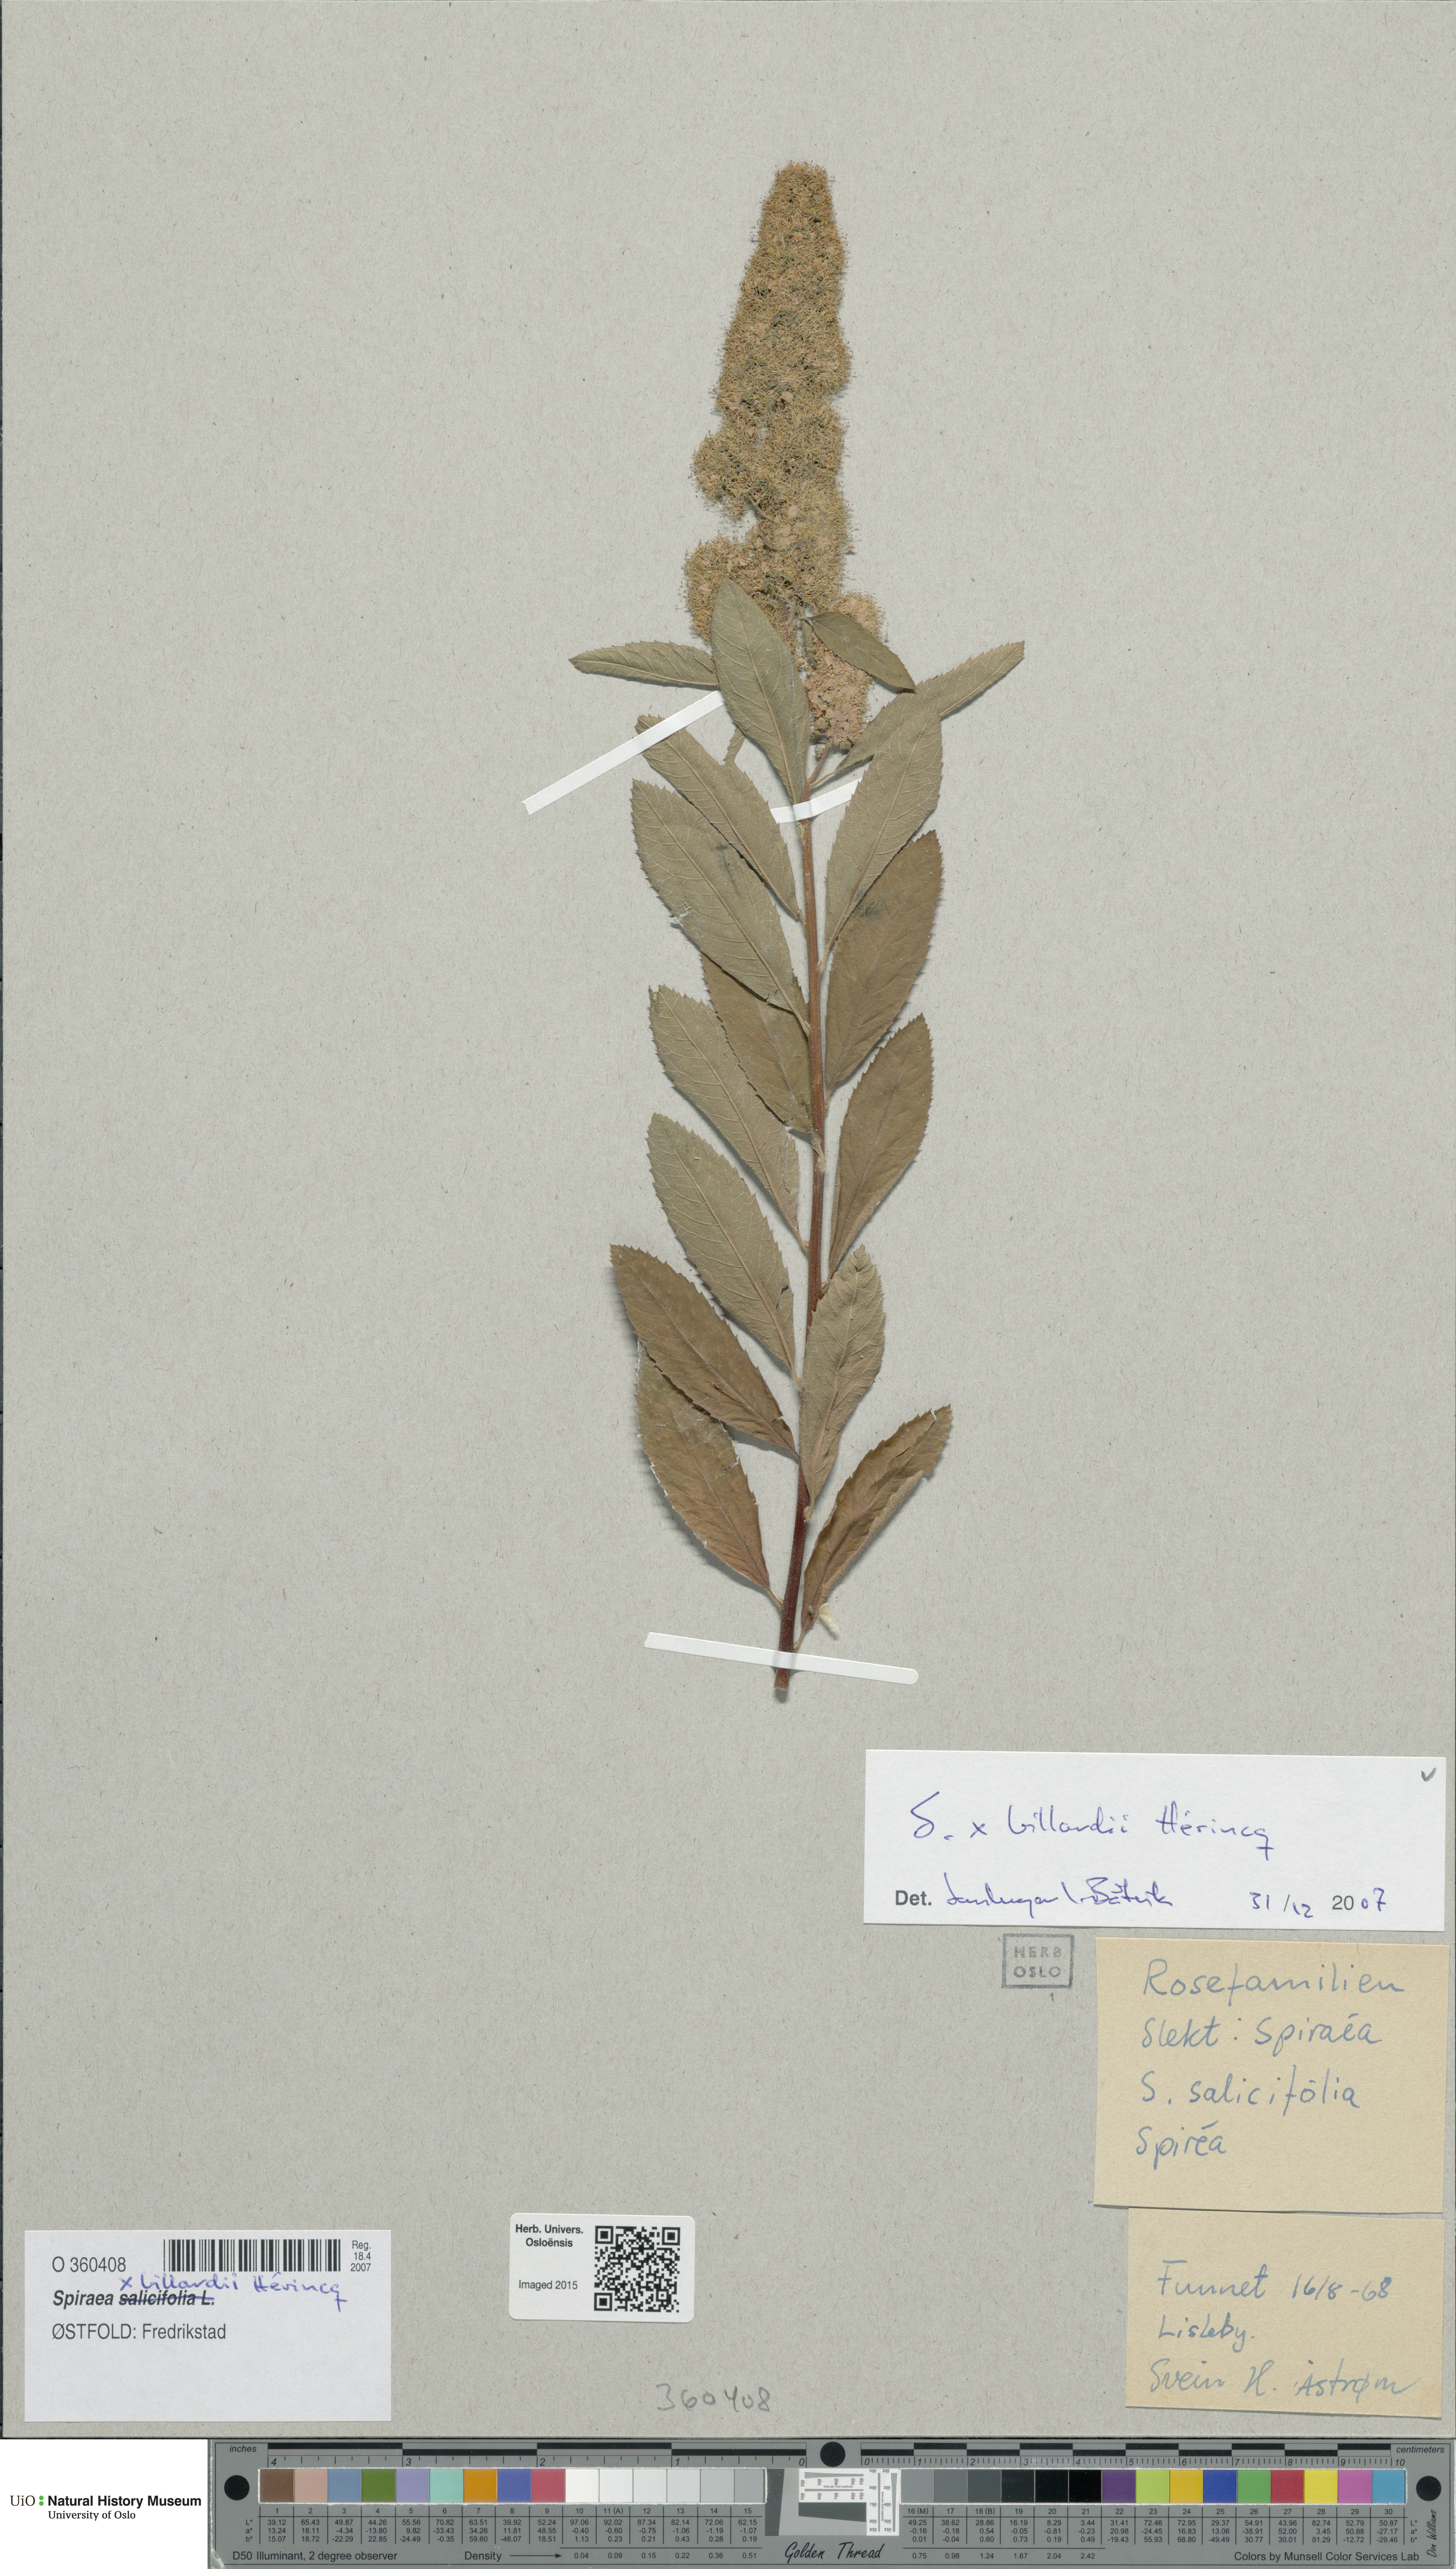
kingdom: Plantae
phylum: Tracheophyta
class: Magnoliopsida
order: Rosales
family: Rosaceae
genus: Spiraea
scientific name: Spiraea billardii
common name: Billard's bridewort
